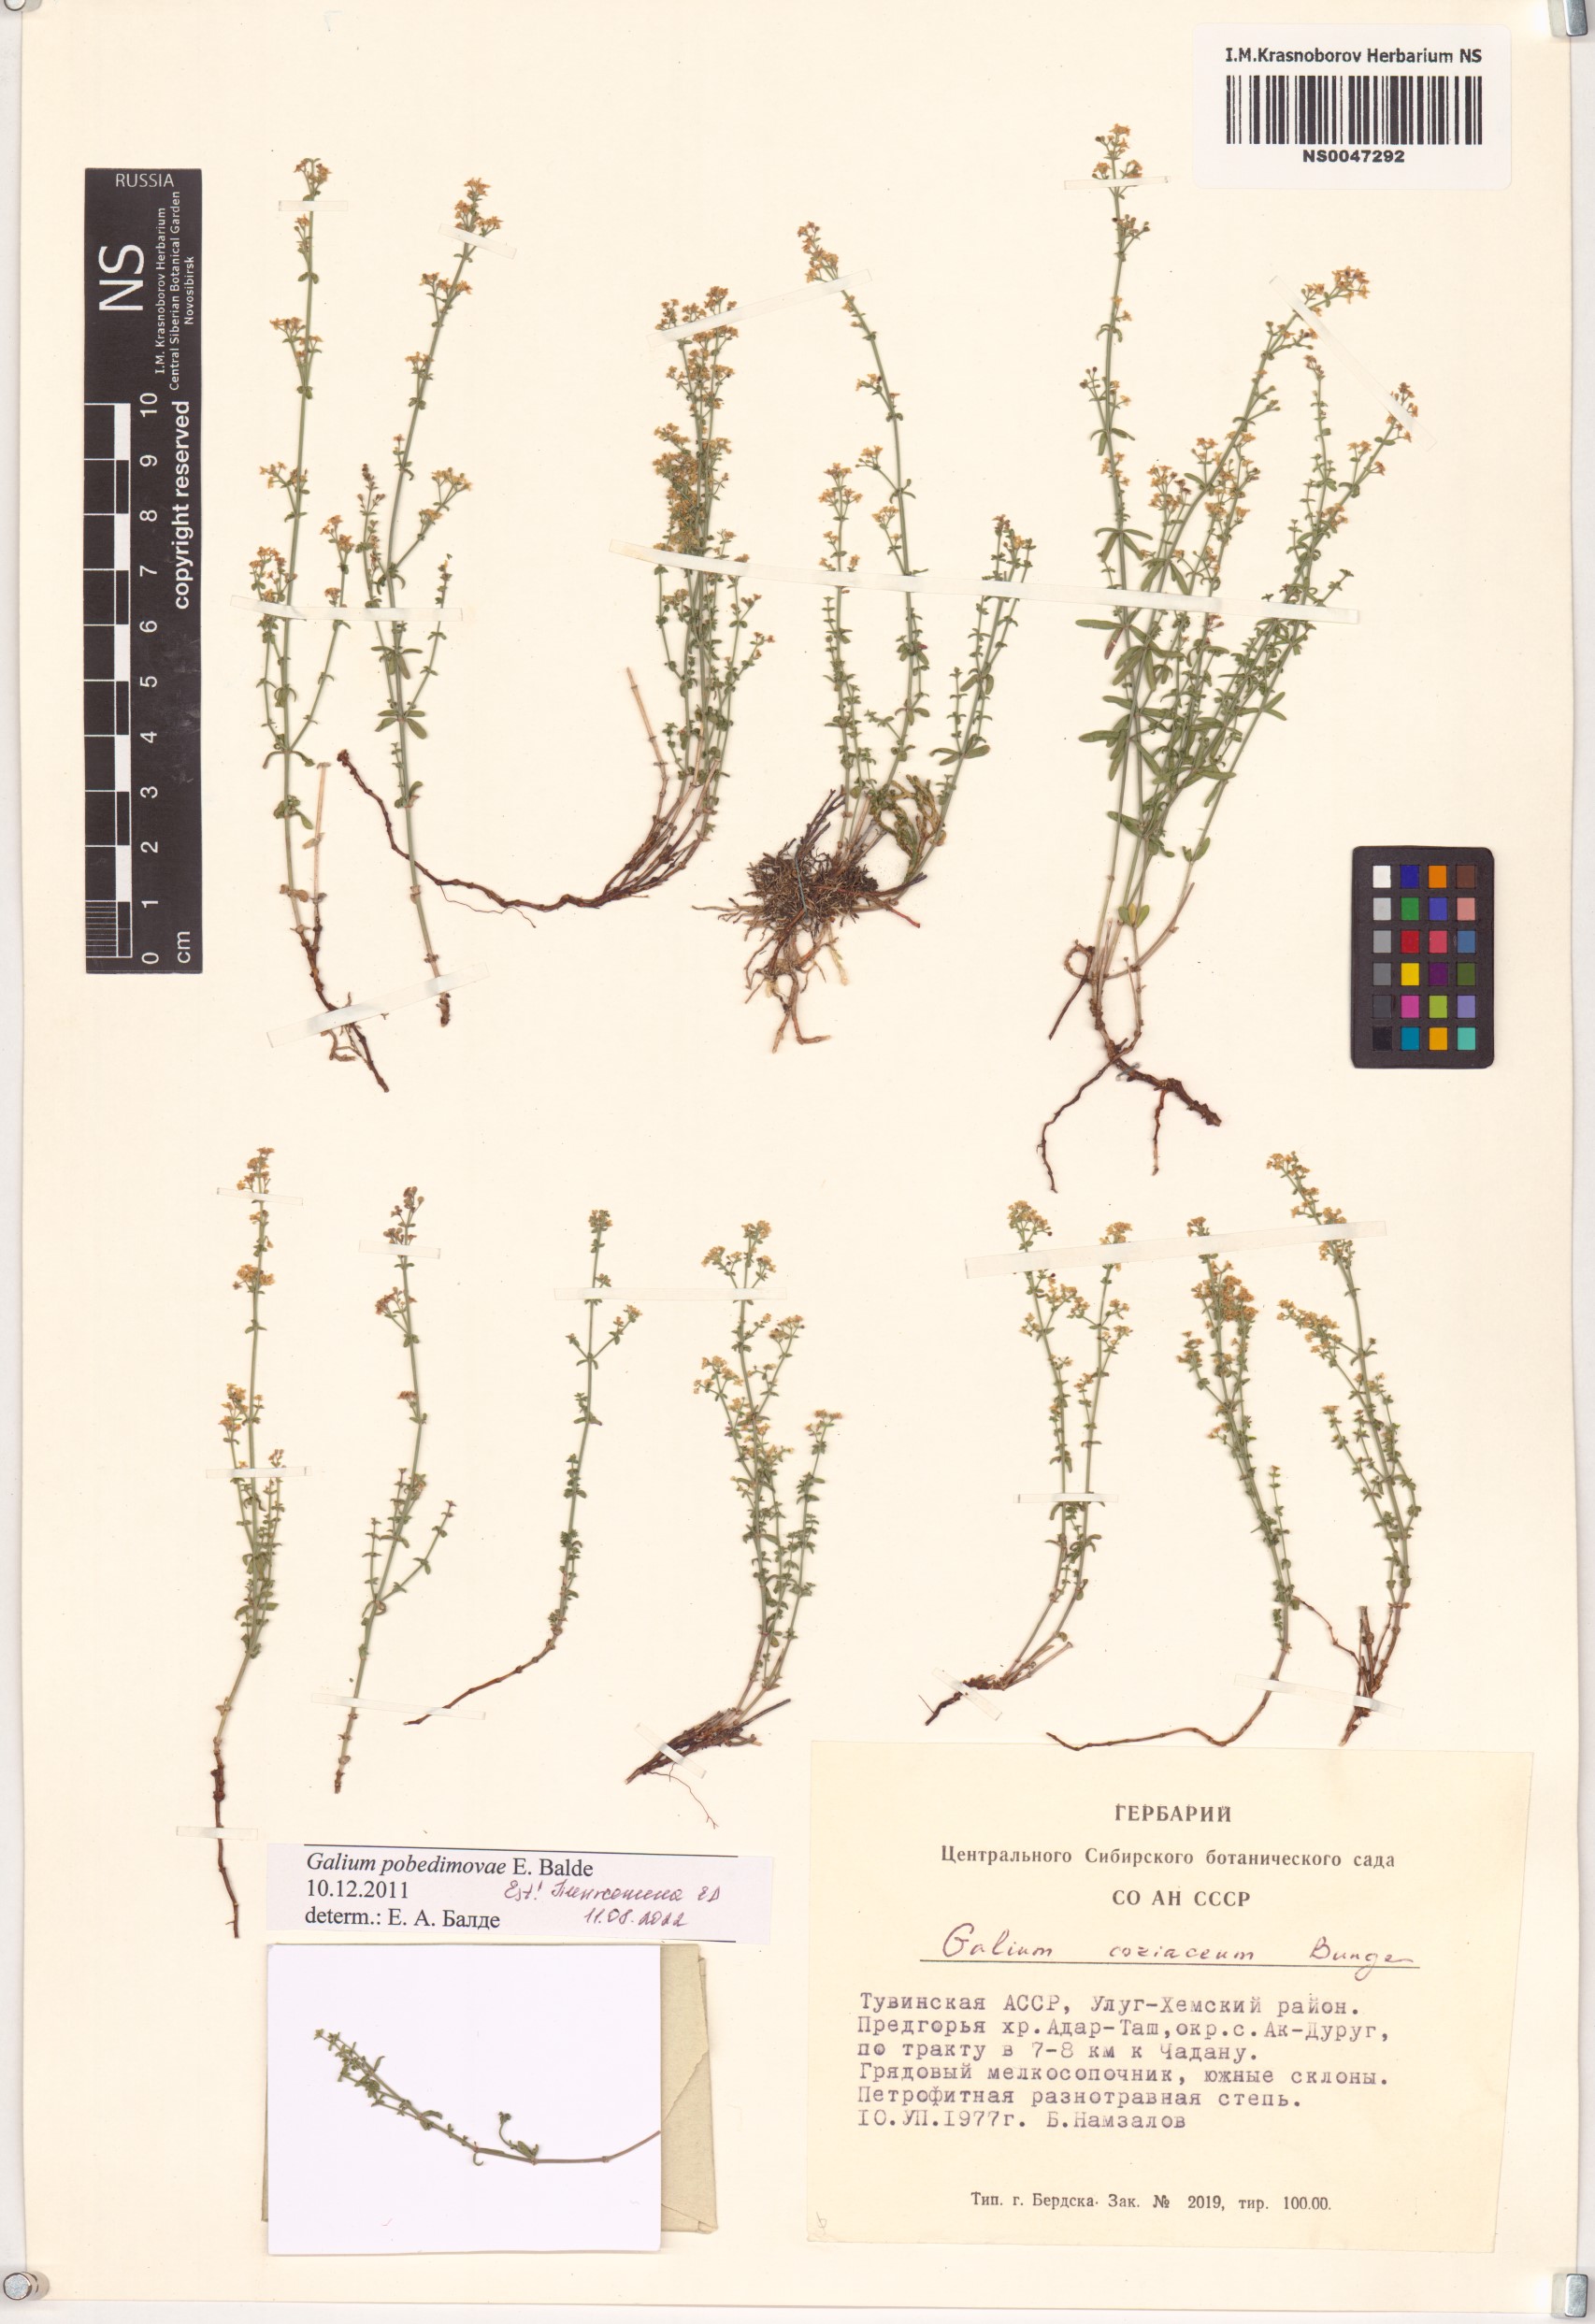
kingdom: Plantae
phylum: Tracheophyta
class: Magnoliopsida
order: Gentianales
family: Rubiaceae
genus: Galium
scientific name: Galium pobedimovae
